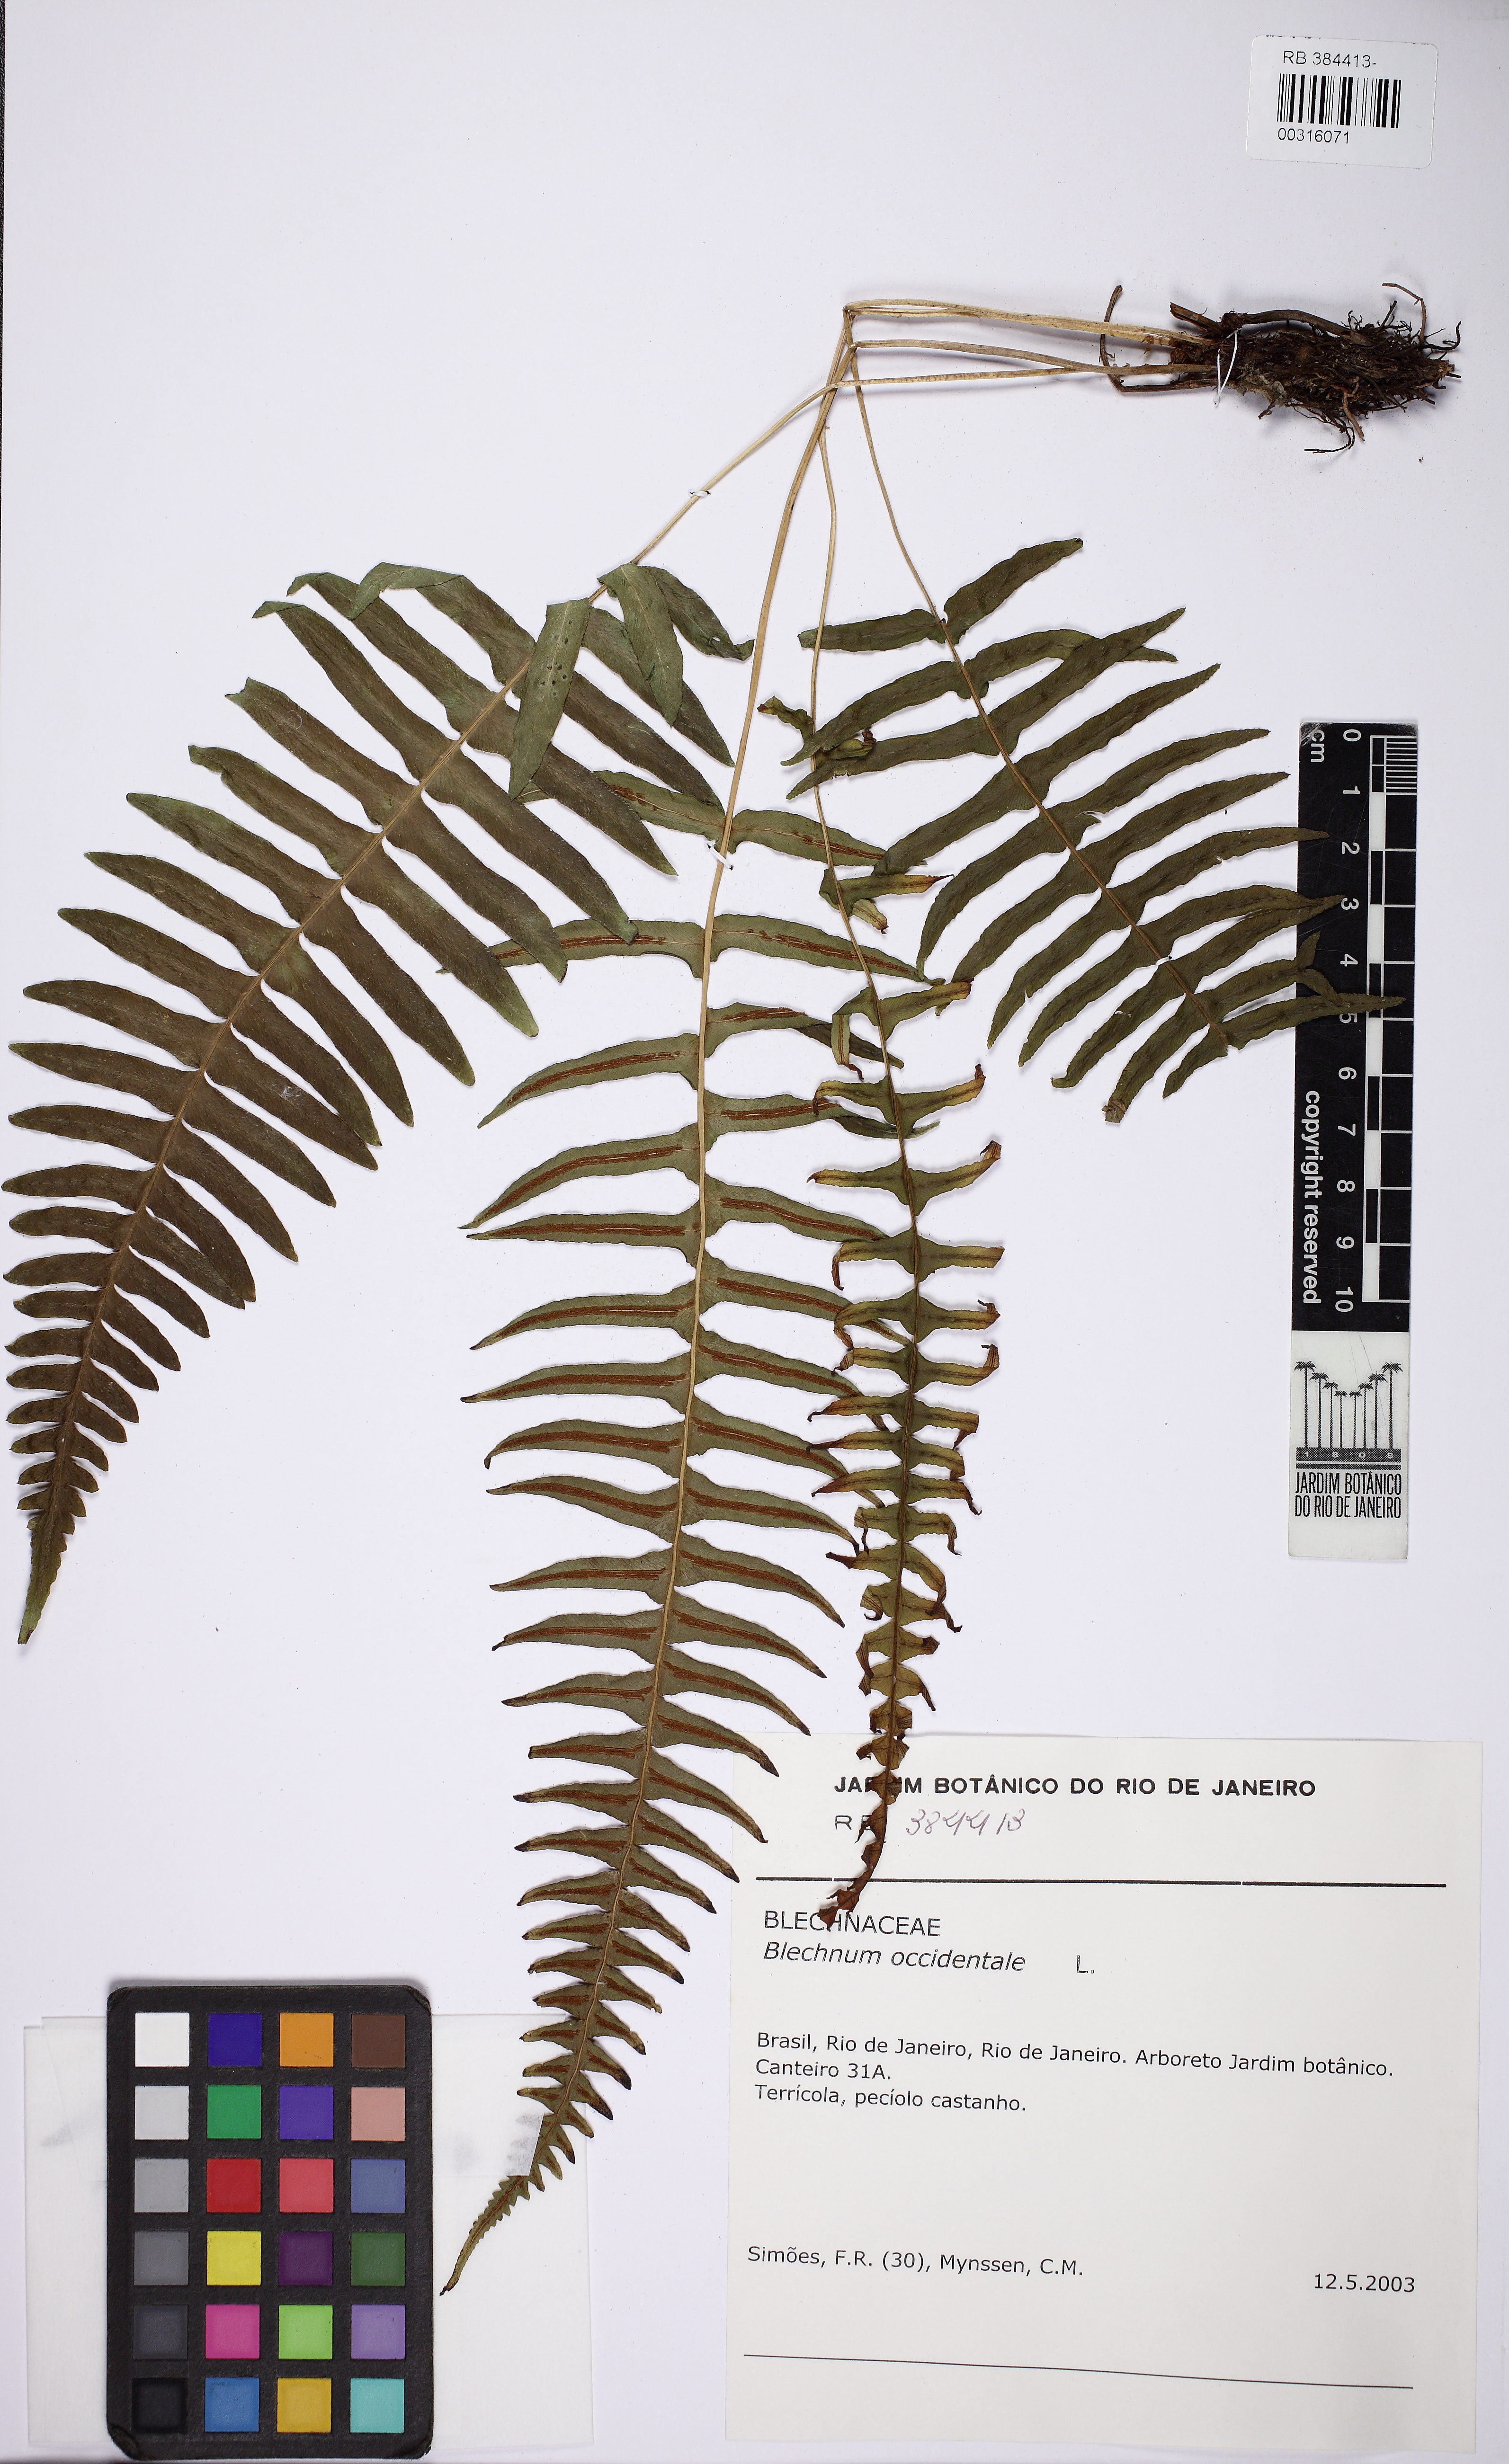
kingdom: Plantae
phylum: Tracheophyta
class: Polypodiopsida
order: Polypodiales
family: Blechnaceae
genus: Blechnum
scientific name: Blechnum austrobrasilianum
